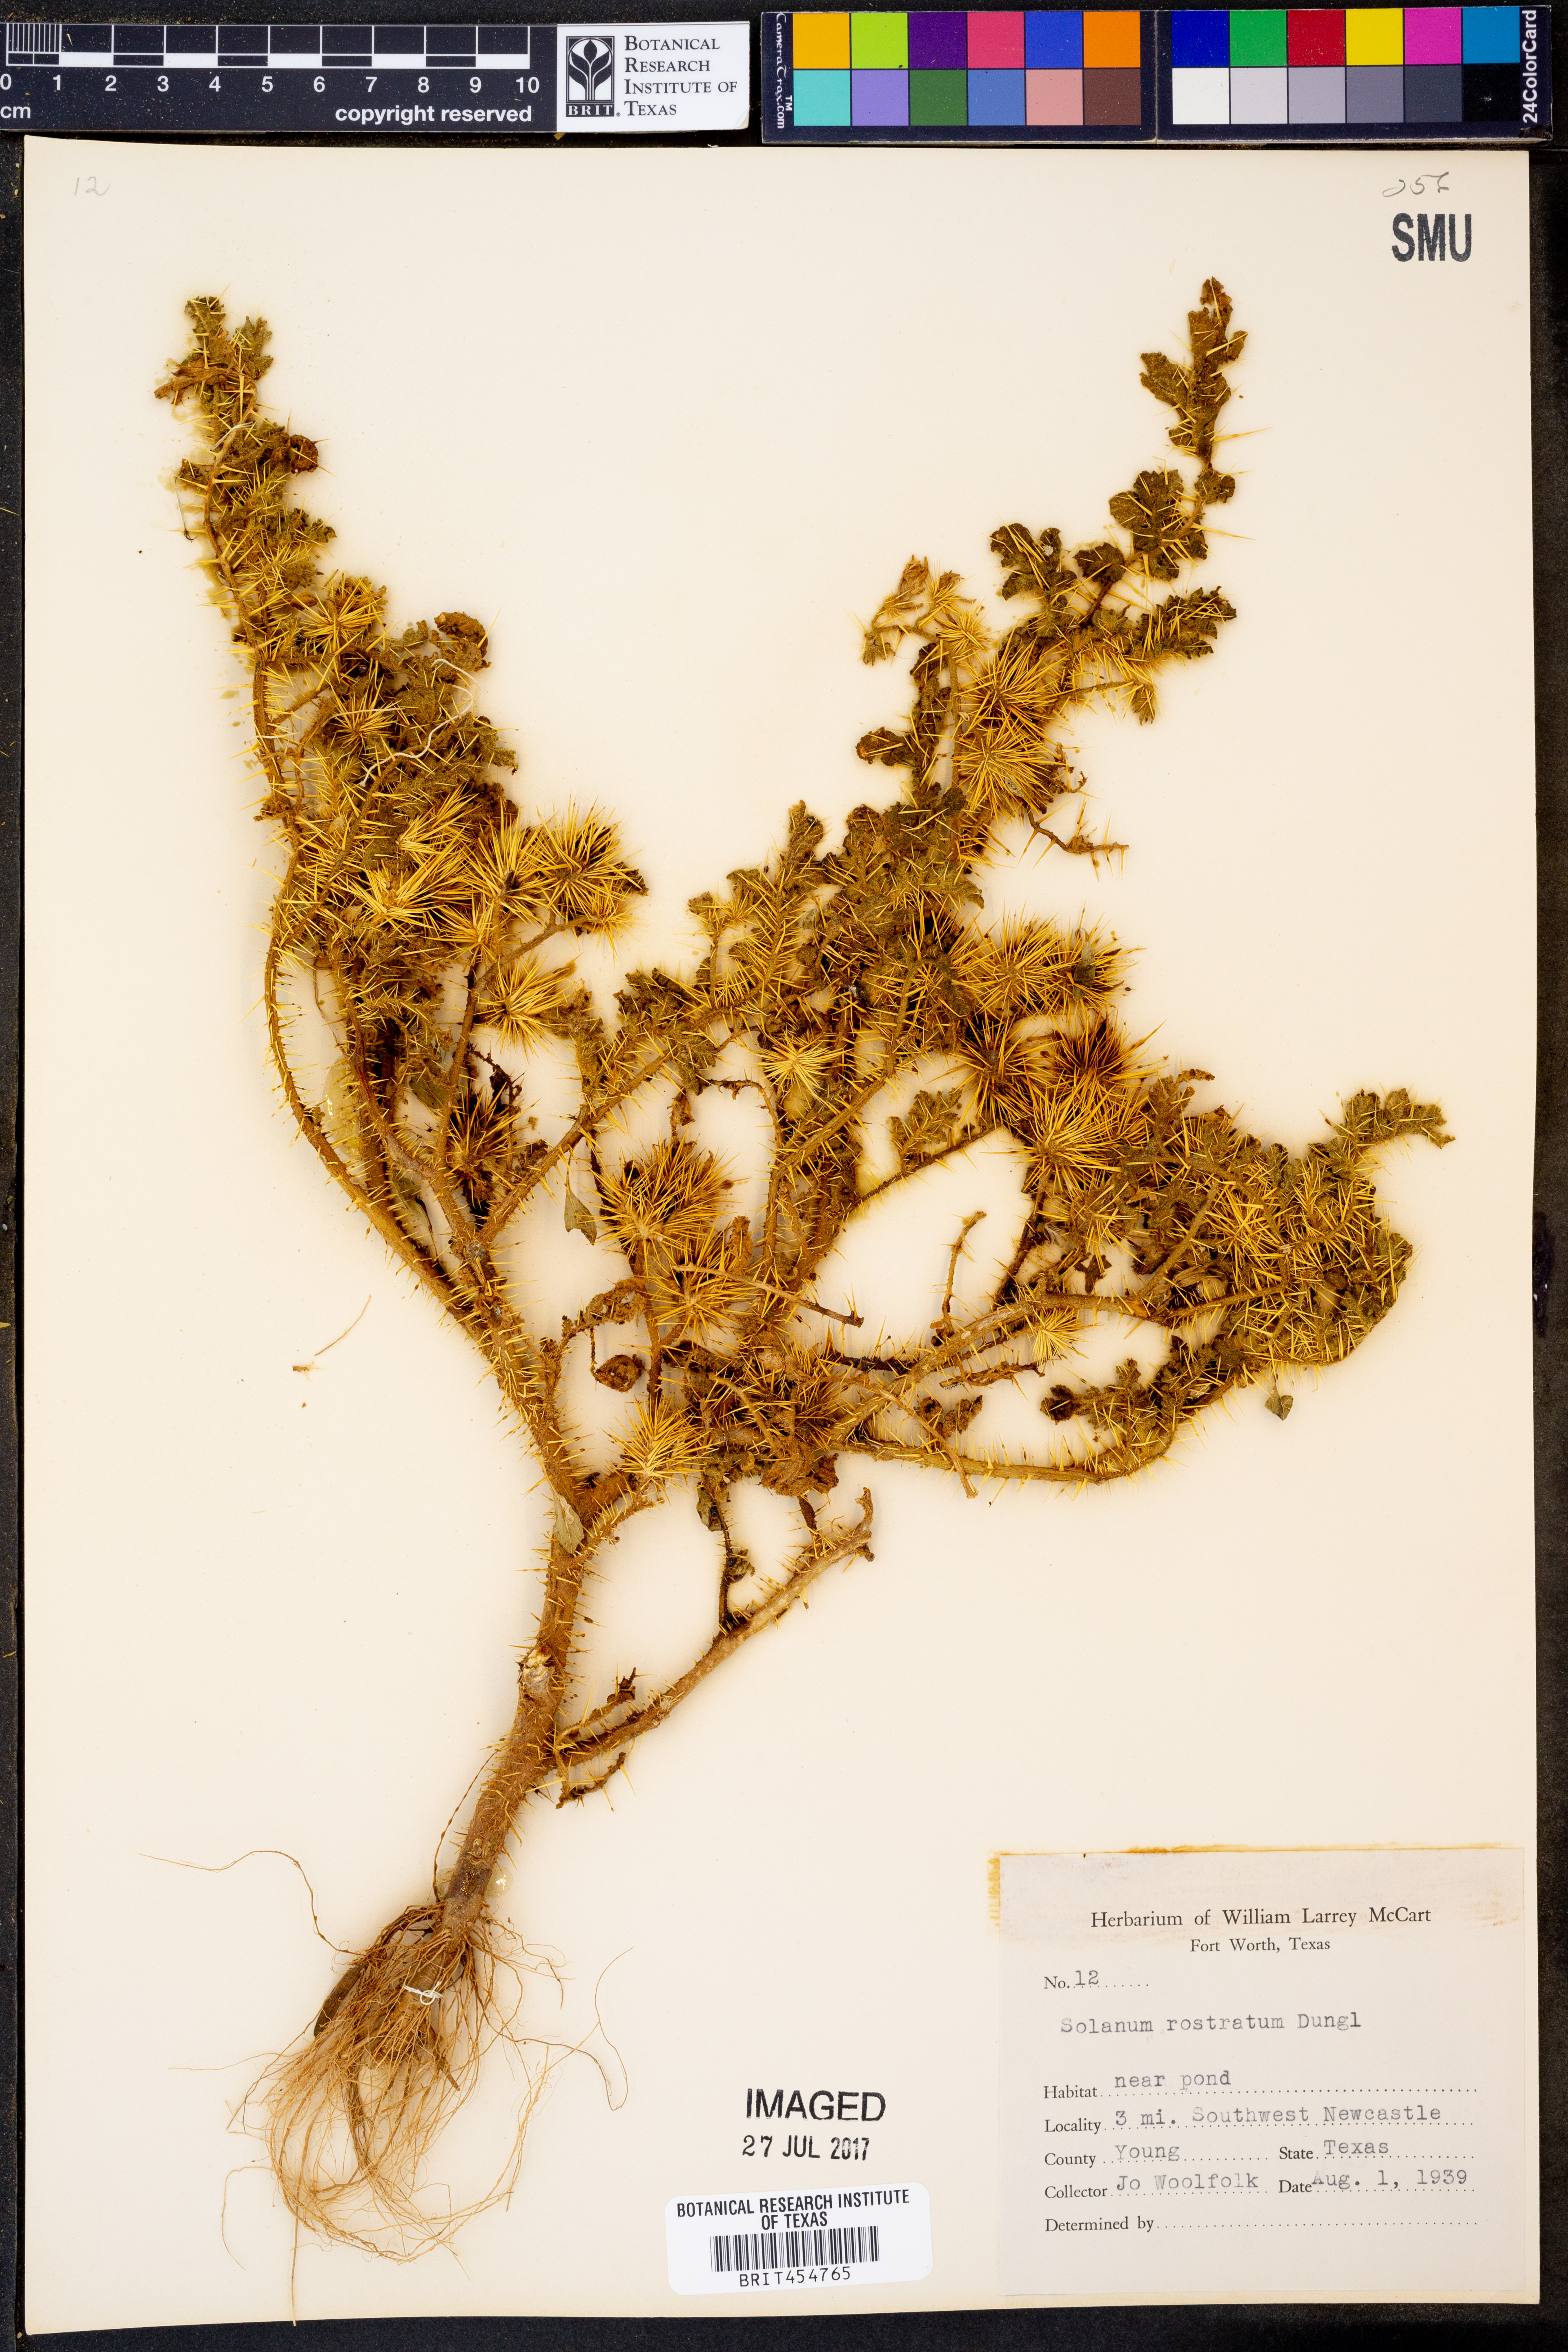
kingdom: Plantae
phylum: Tracheophyta
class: Magnoliopsida
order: Solanales
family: Solanaceae
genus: Solanum
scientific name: Solanum angustifolium
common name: Buffalobur nightshade
